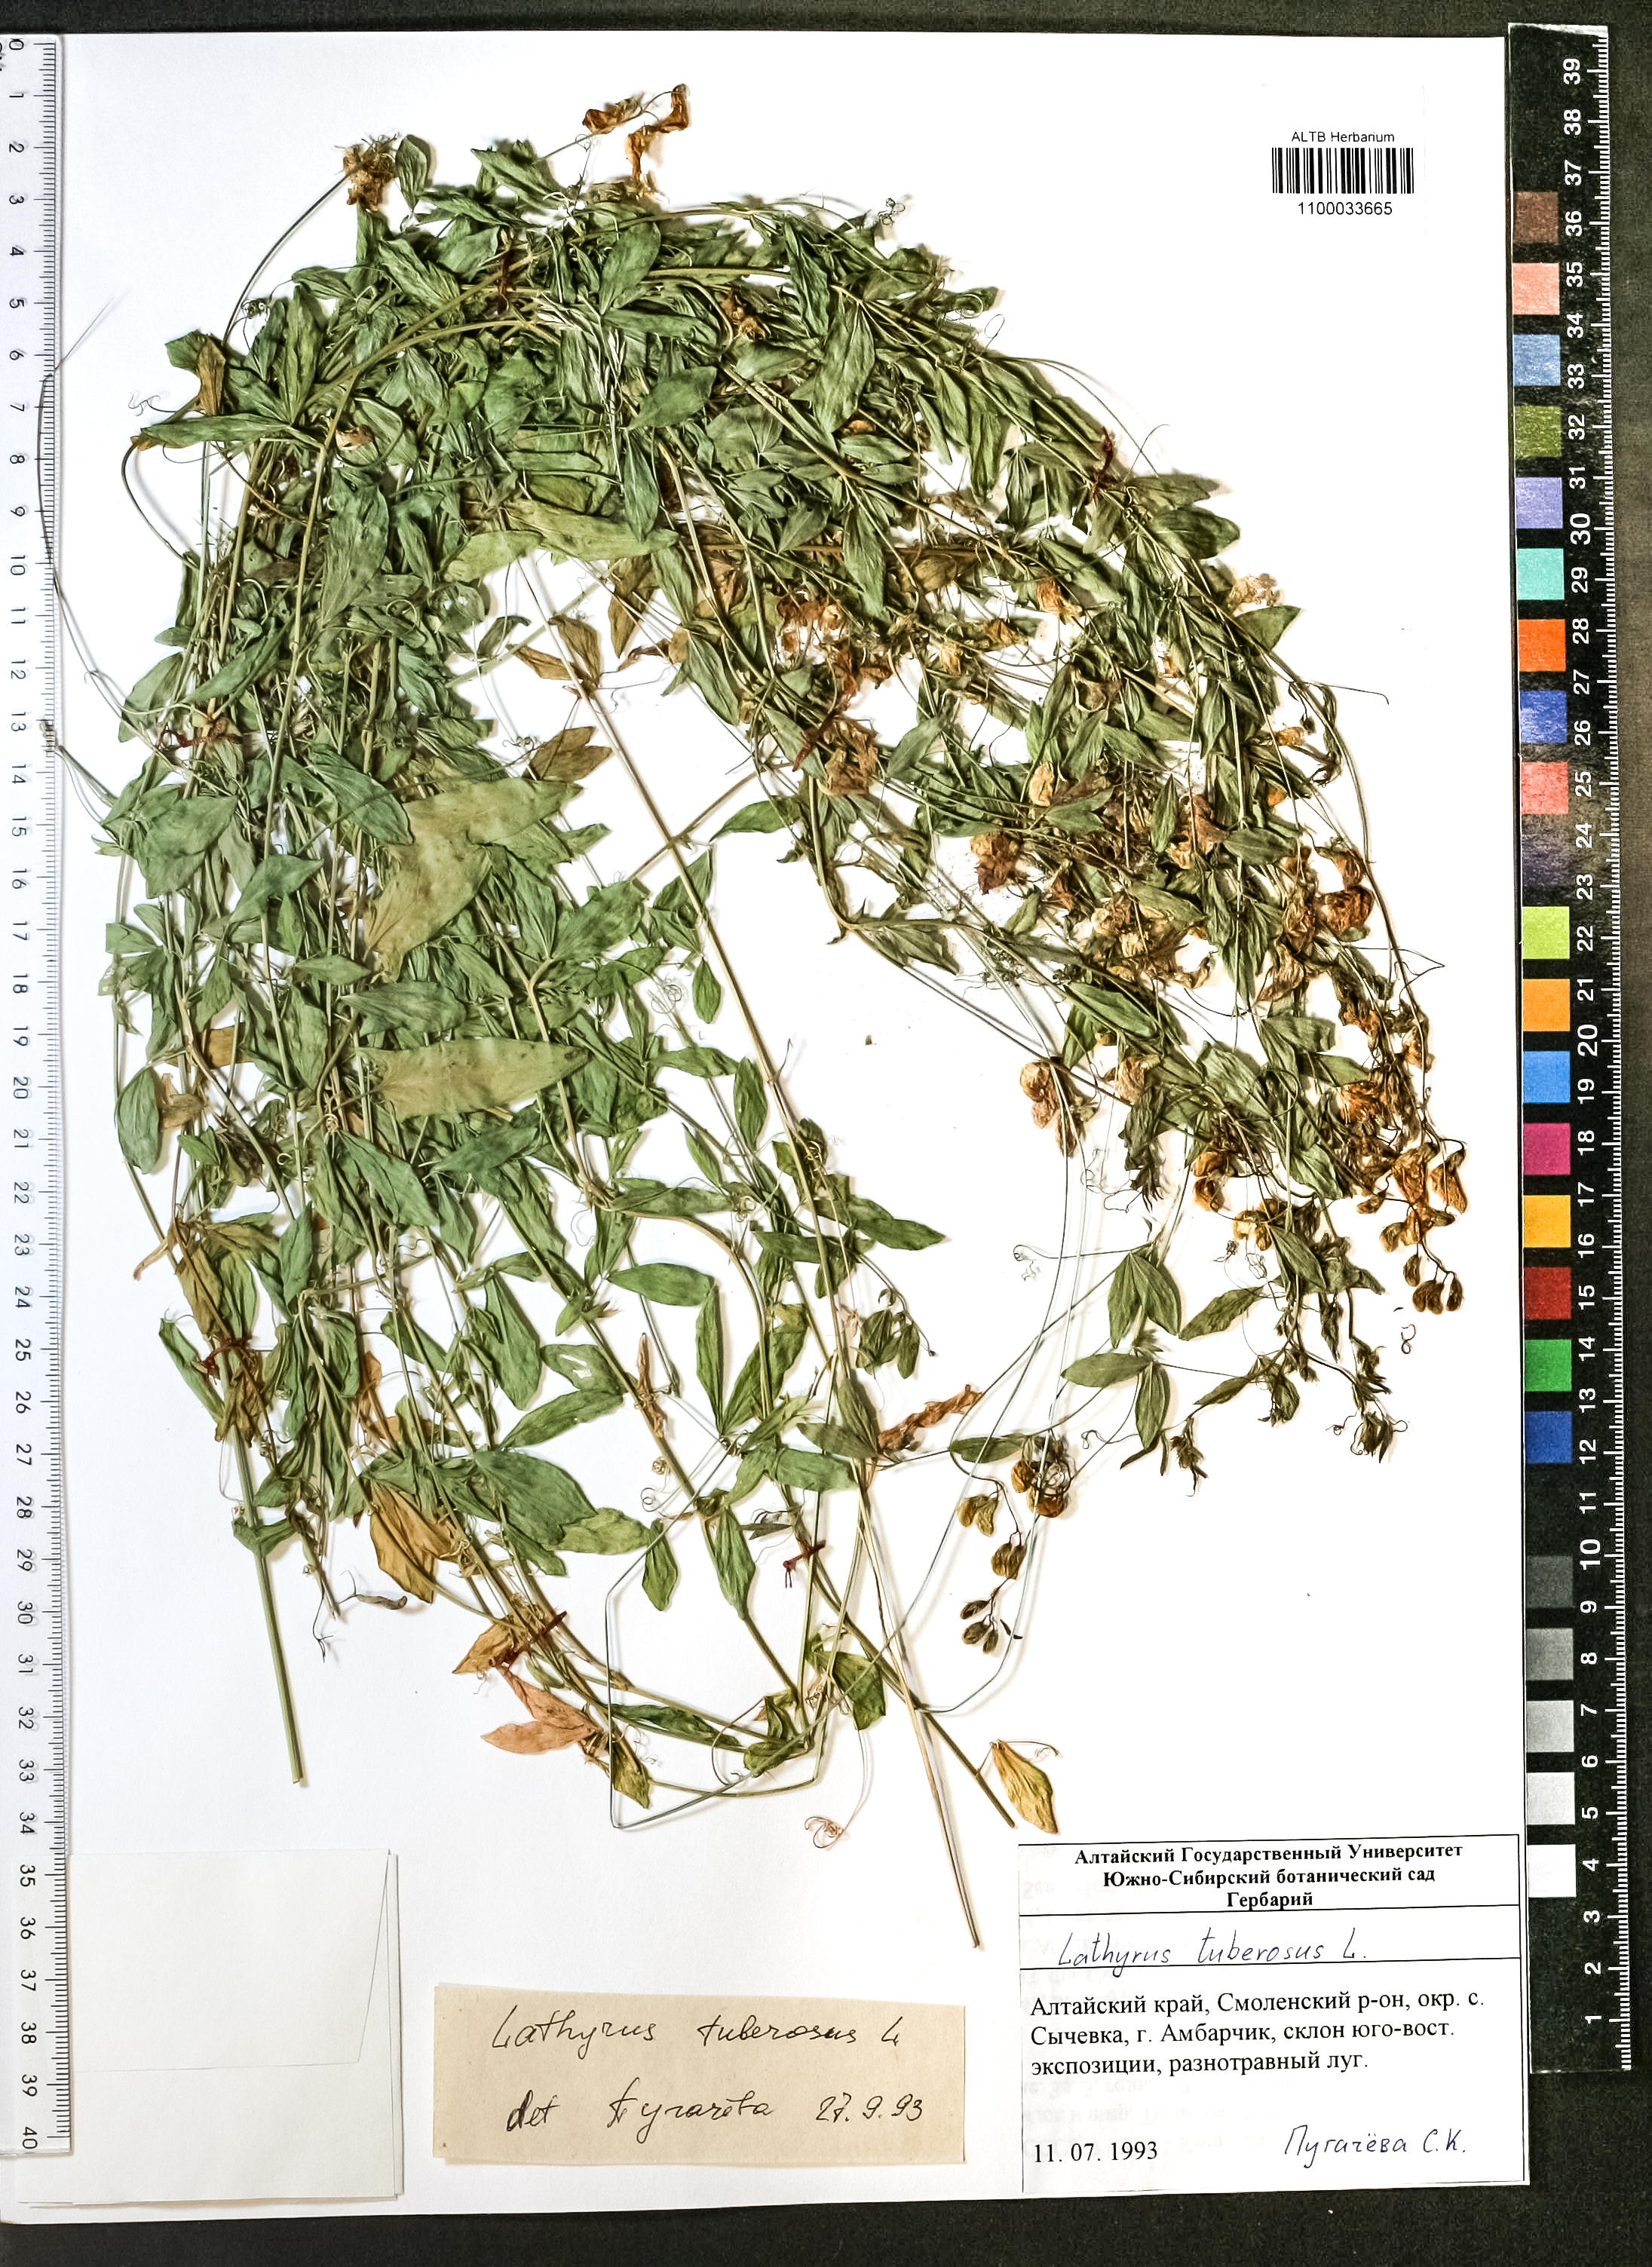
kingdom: Plantae
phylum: Tracheophyta
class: Magnoliopsida
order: Fabales
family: Fabaceae
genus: Lathyrus
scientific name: Lathyrus tuberosus
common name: Tuberous pea
